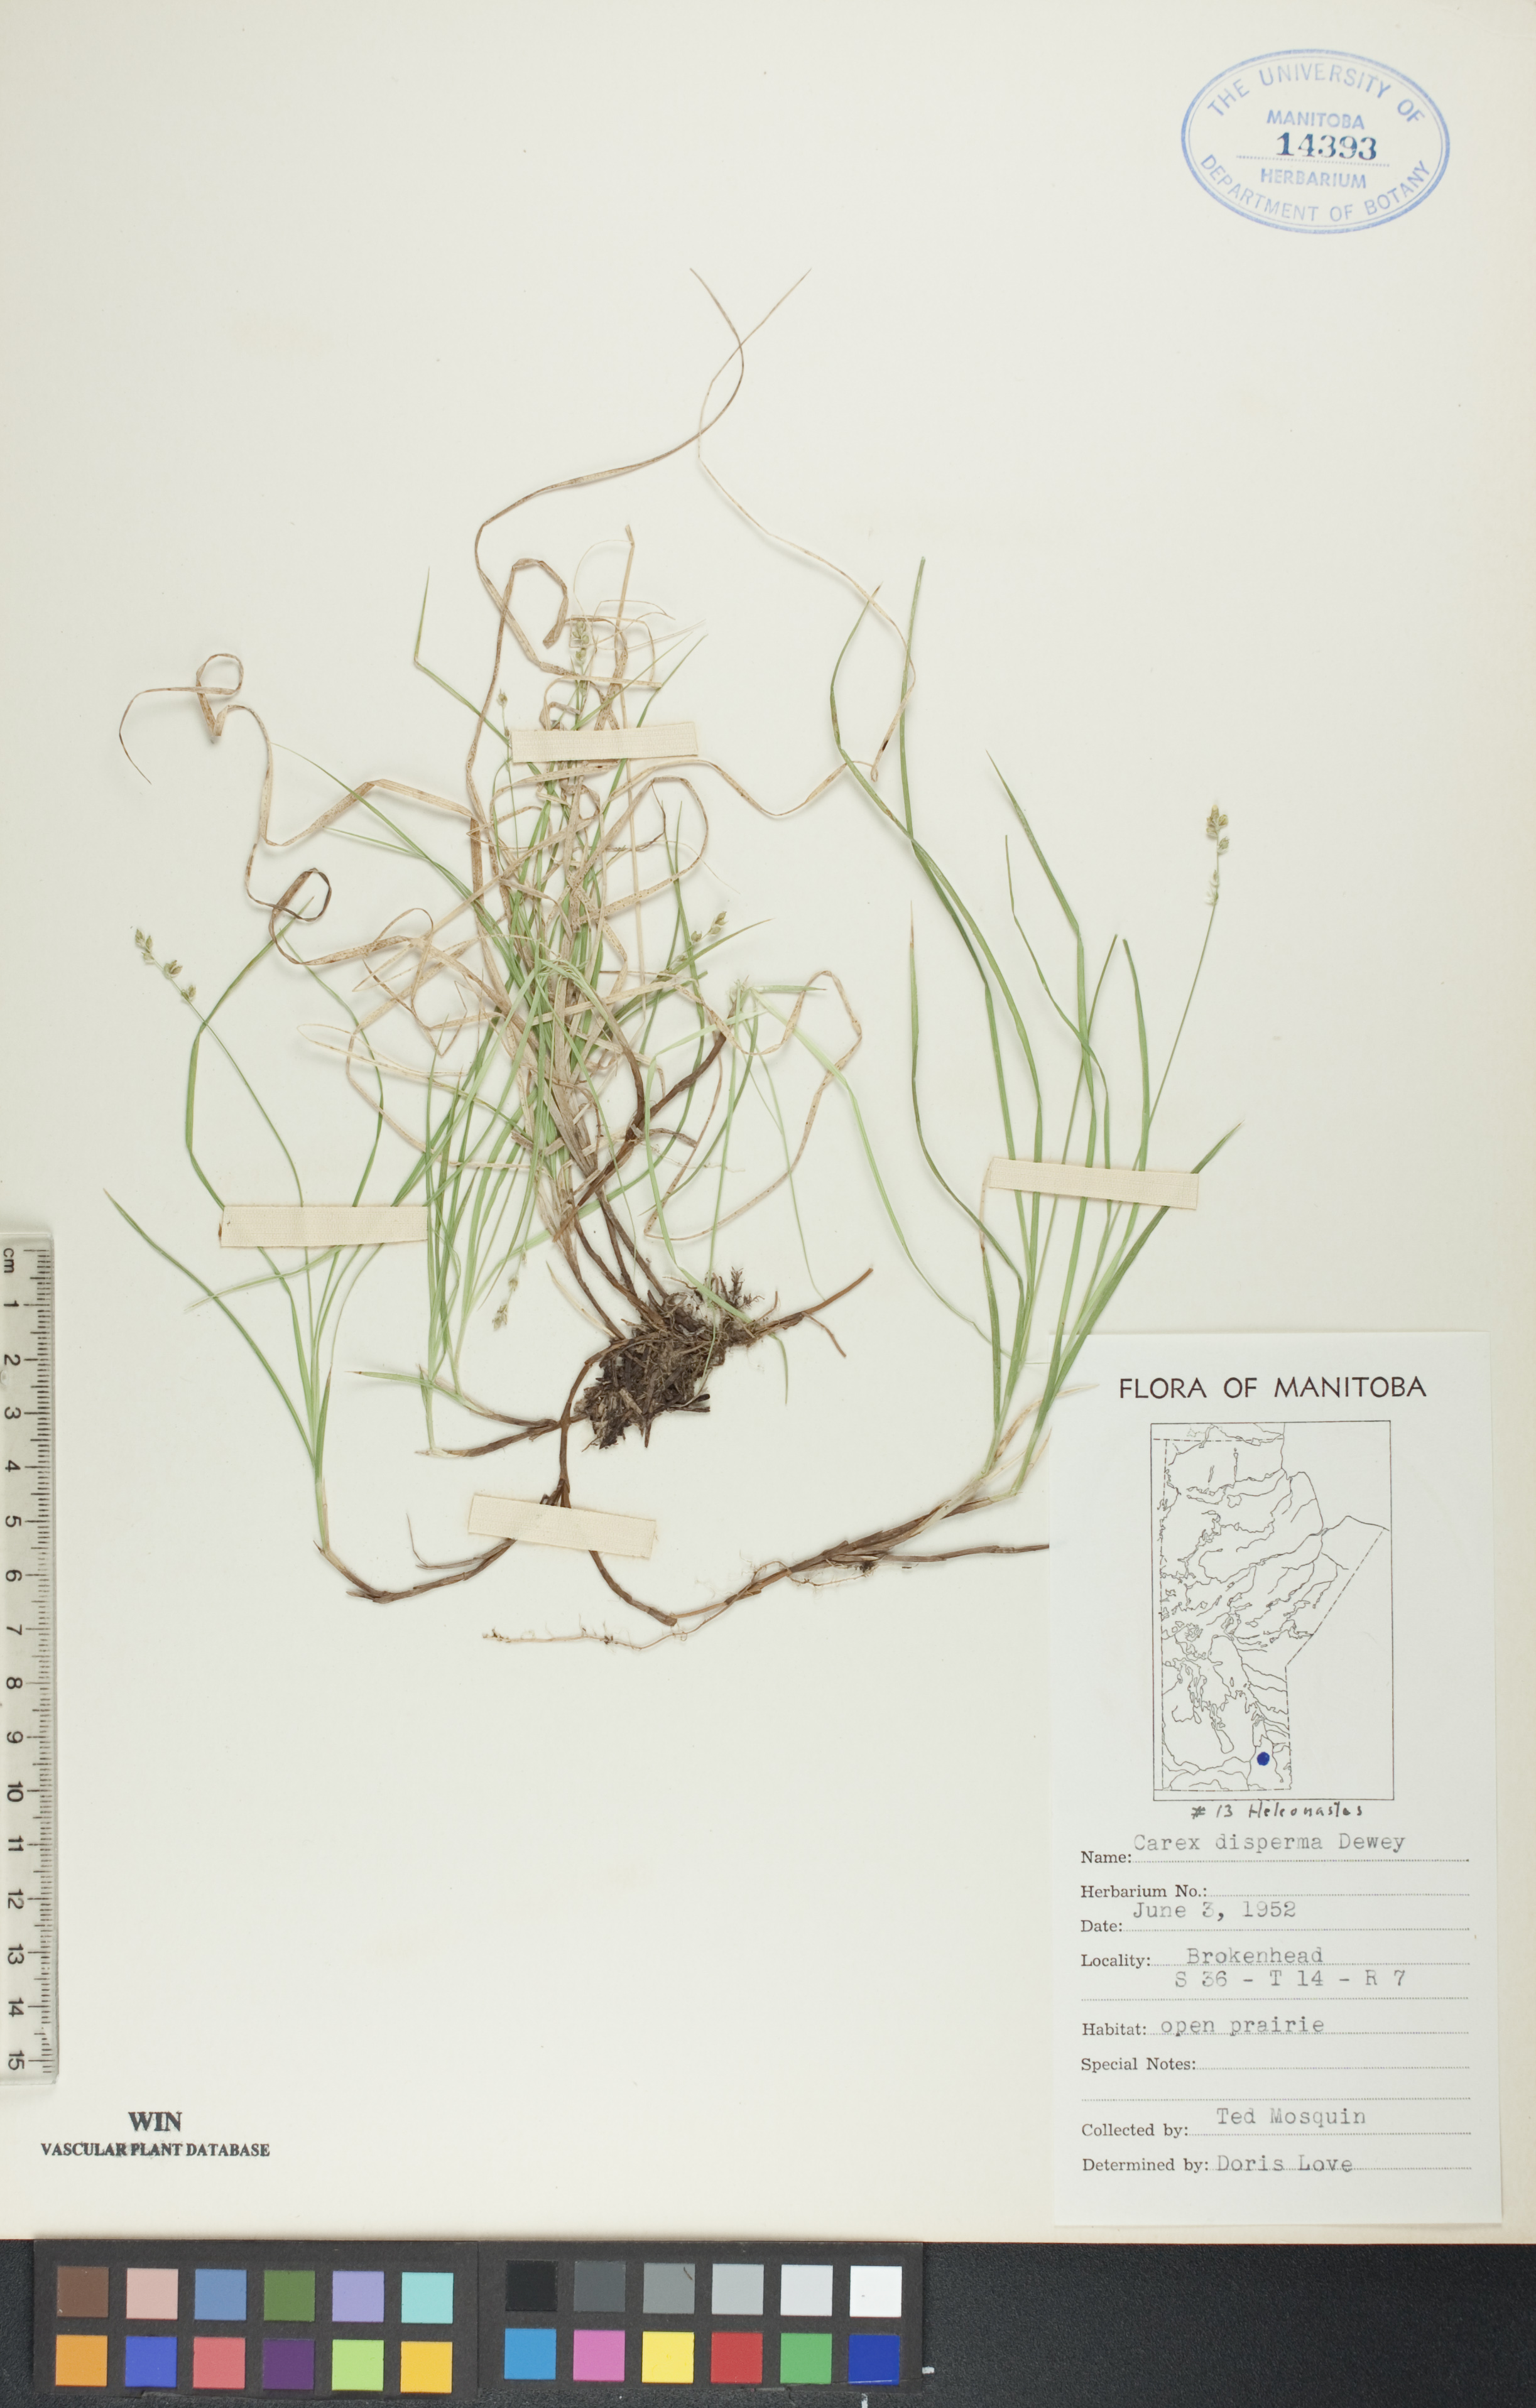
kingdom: Plantae
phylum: Tracheophyta
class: Liliopsida
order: Poales
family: Cyperaceae
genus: Carex
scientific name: Carex disperma
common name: Short-leaved sedge
